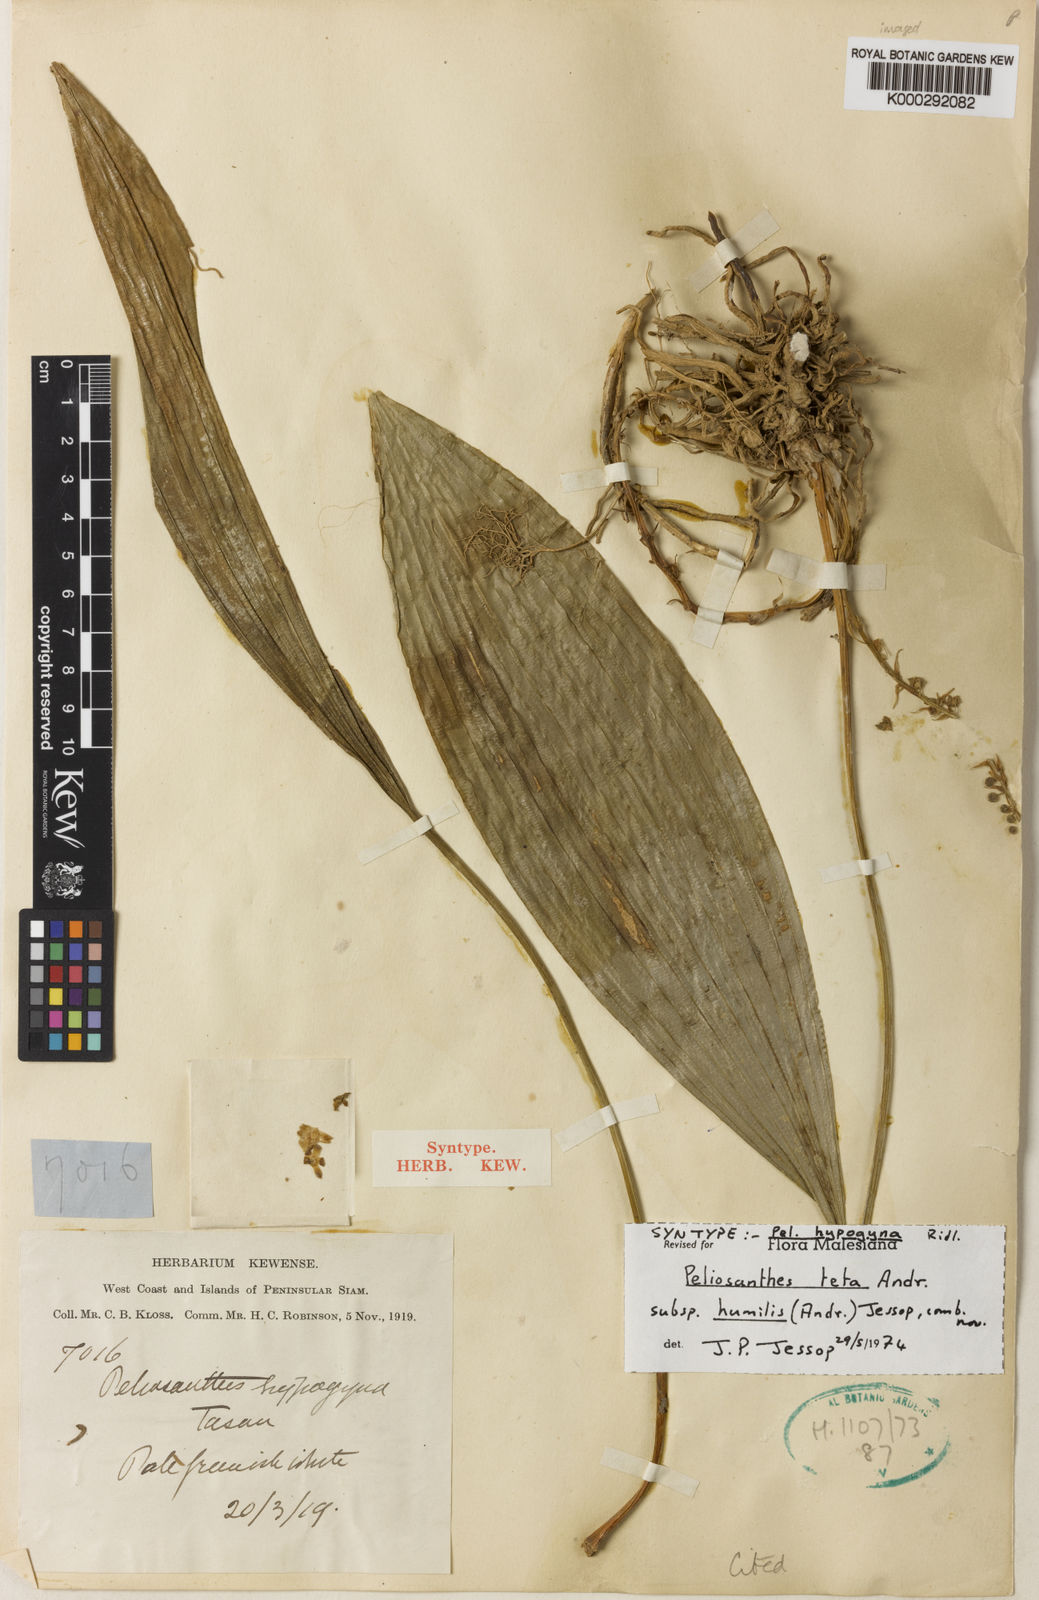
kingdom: Plantae
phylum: Tracheophyta
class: Liliopsida
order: Asparagales
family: Asparagaceae
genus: Peliosanthes
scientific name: Peliosanthes teta
